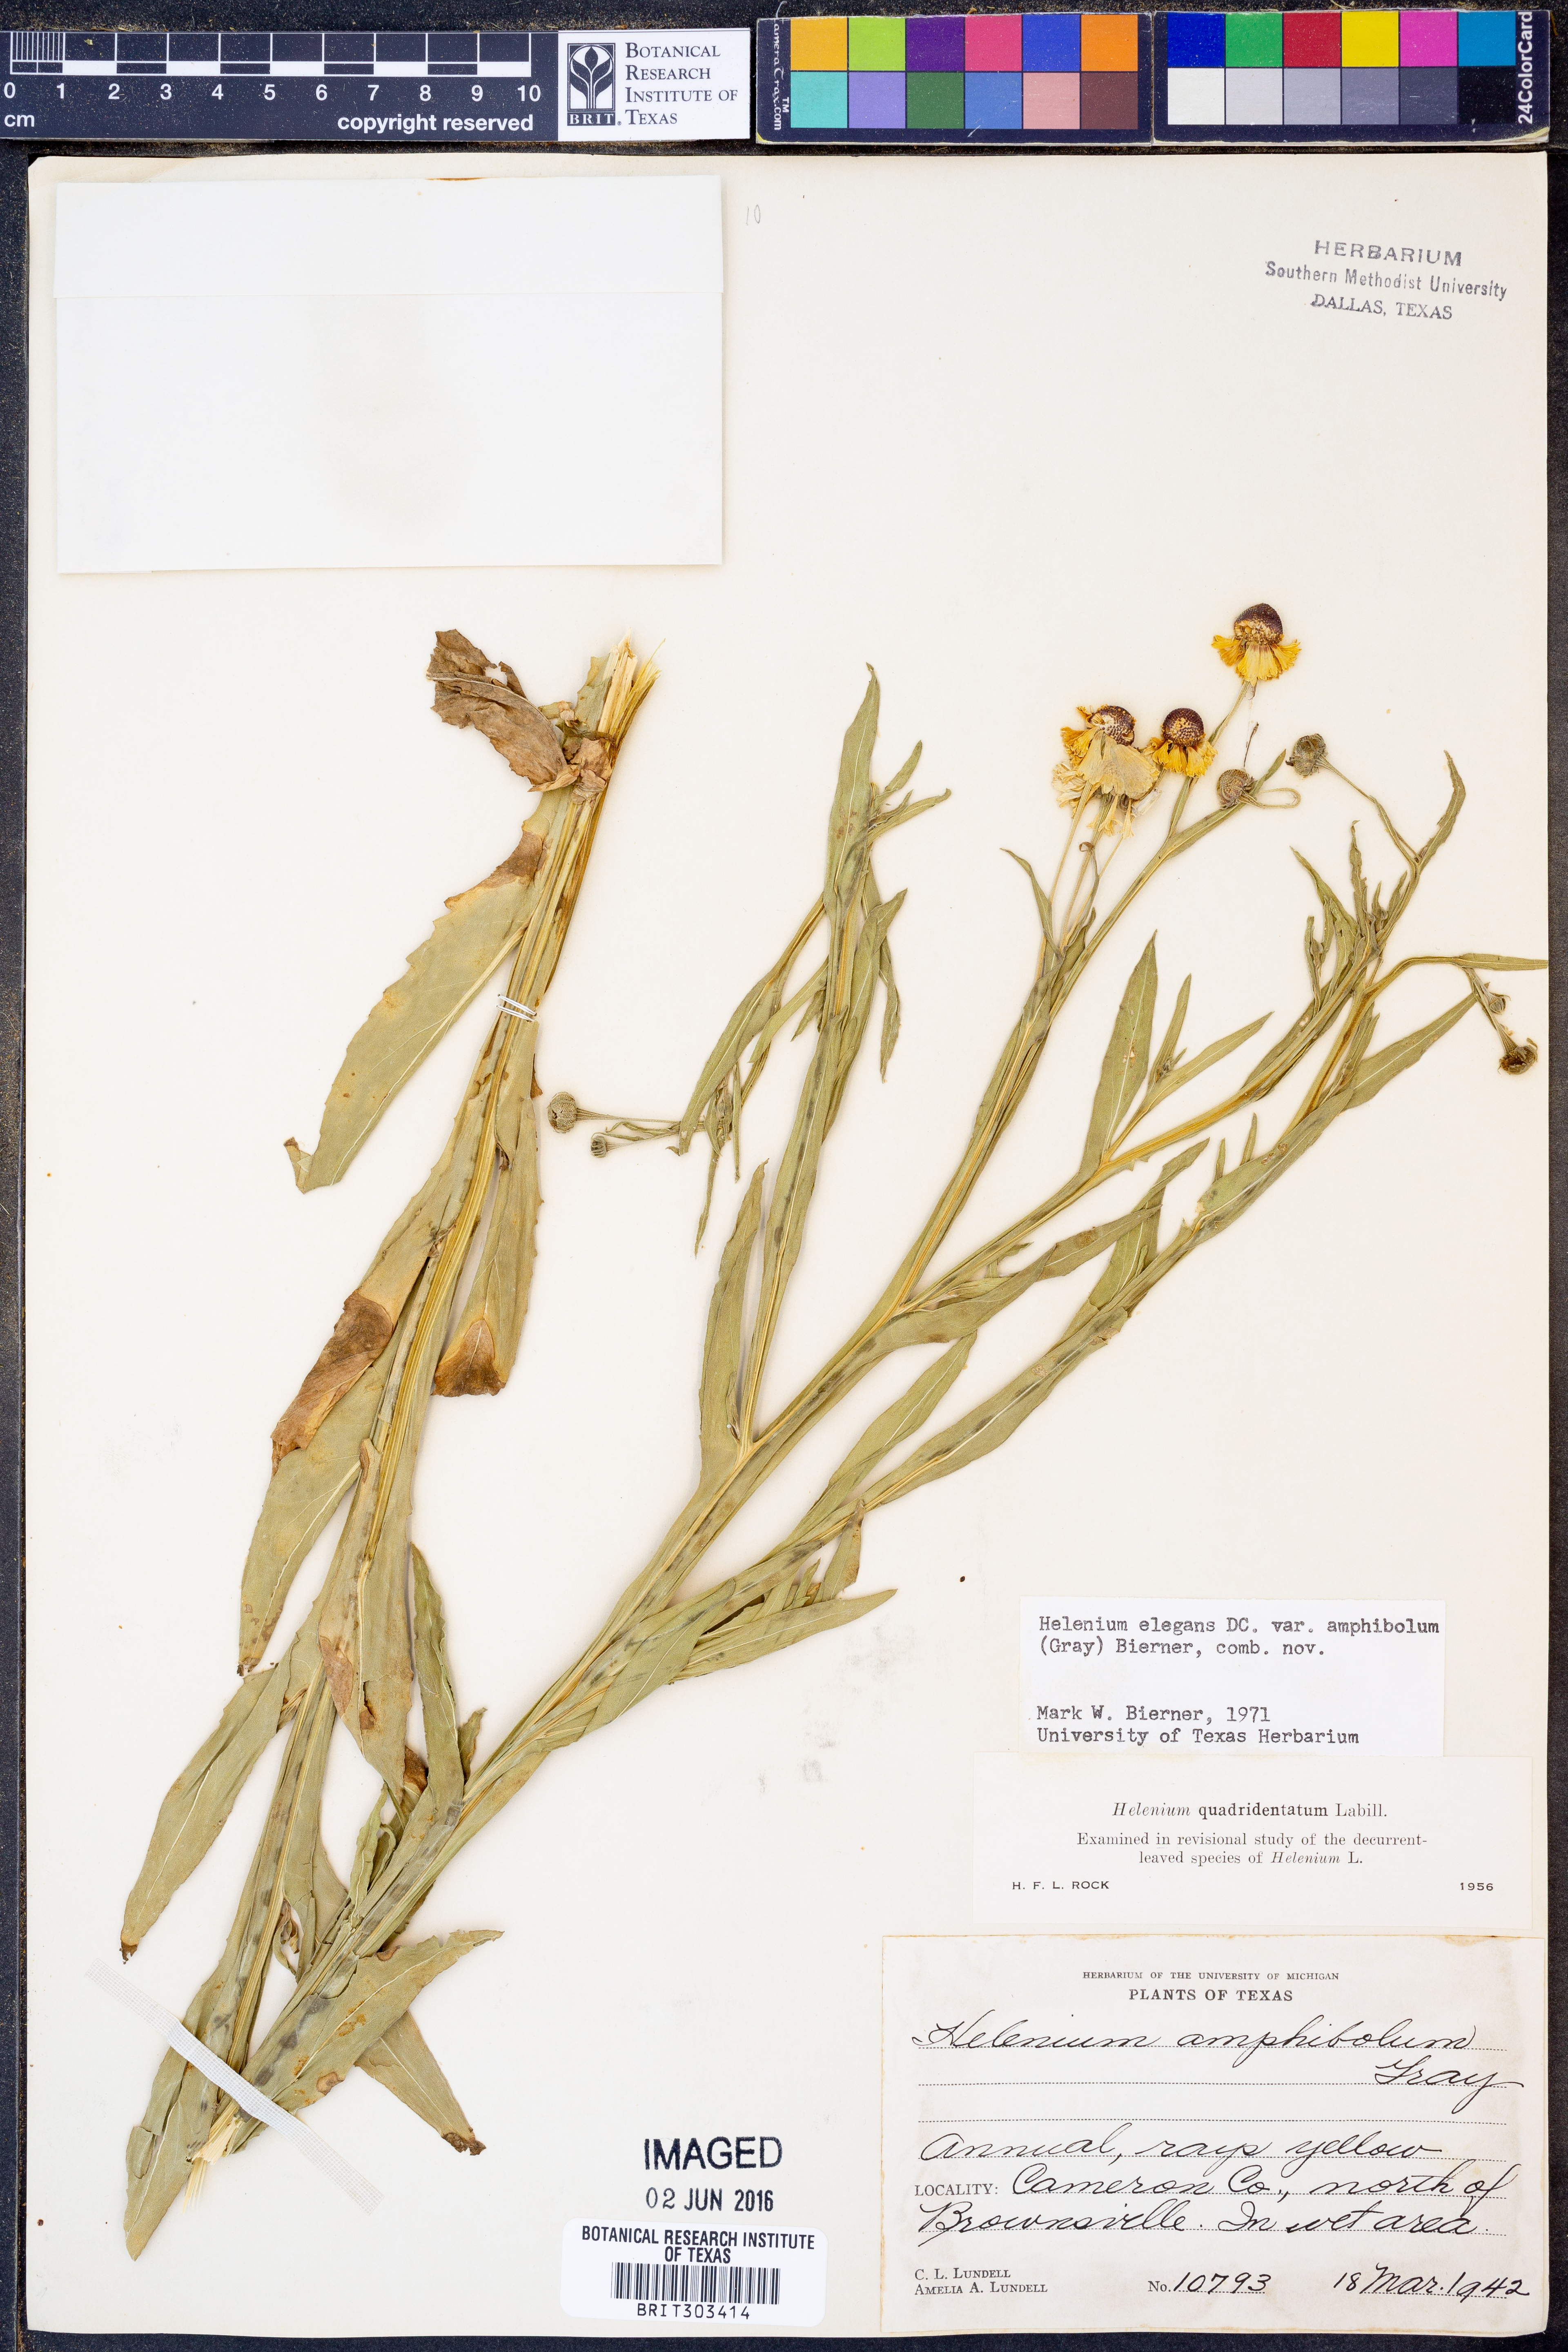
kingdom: Plantae
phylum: Tracheophyta
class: Magnoliopsida
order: Asterales
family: Asteraceae
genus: Helenium
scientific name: Helenium amphibolum
